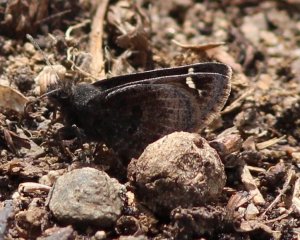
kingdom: Animalia
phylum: Arthropoda
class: Insecta
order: Lepidoptera
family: Hesperiidae
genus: Thorybes
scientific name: Thorybes mexicana
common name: Mexican Cloudywing
